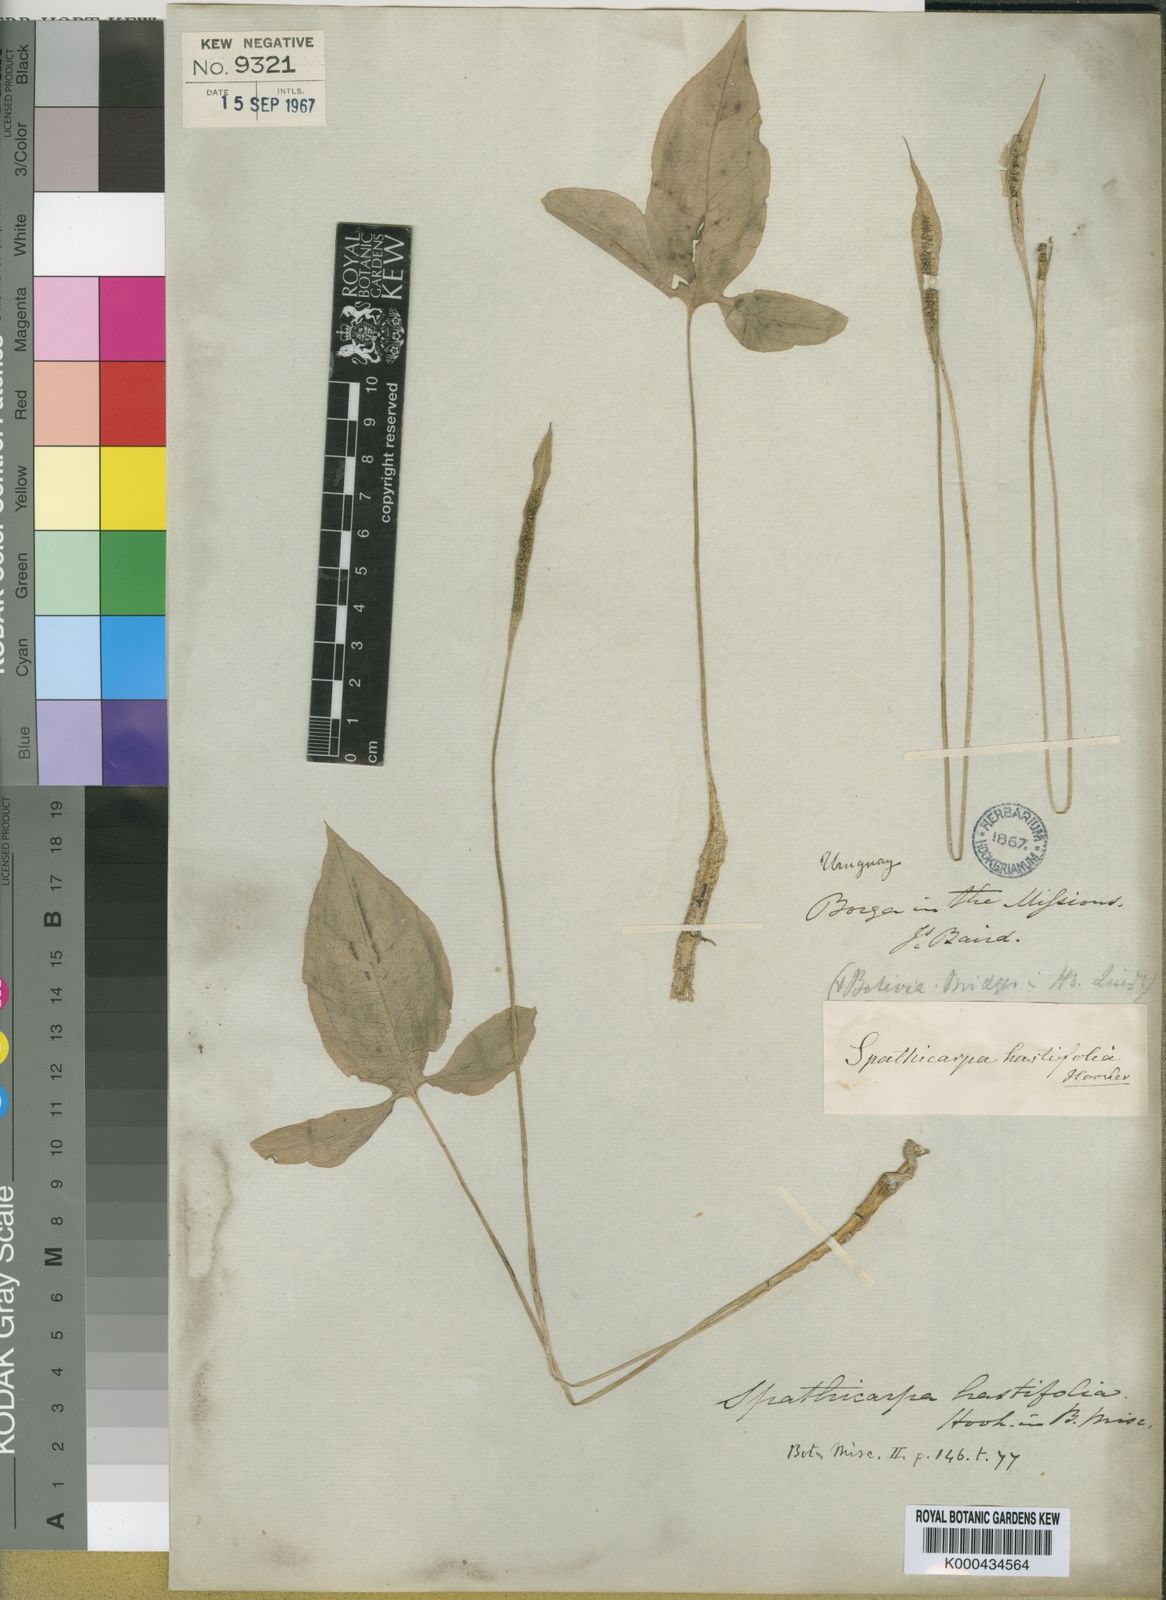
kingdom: Plantae
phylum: Tracheophyta
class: Liliopsida
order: Alismatales
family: Araceae
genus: Spathicarpa
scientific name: Spathicarpa hastifolia
